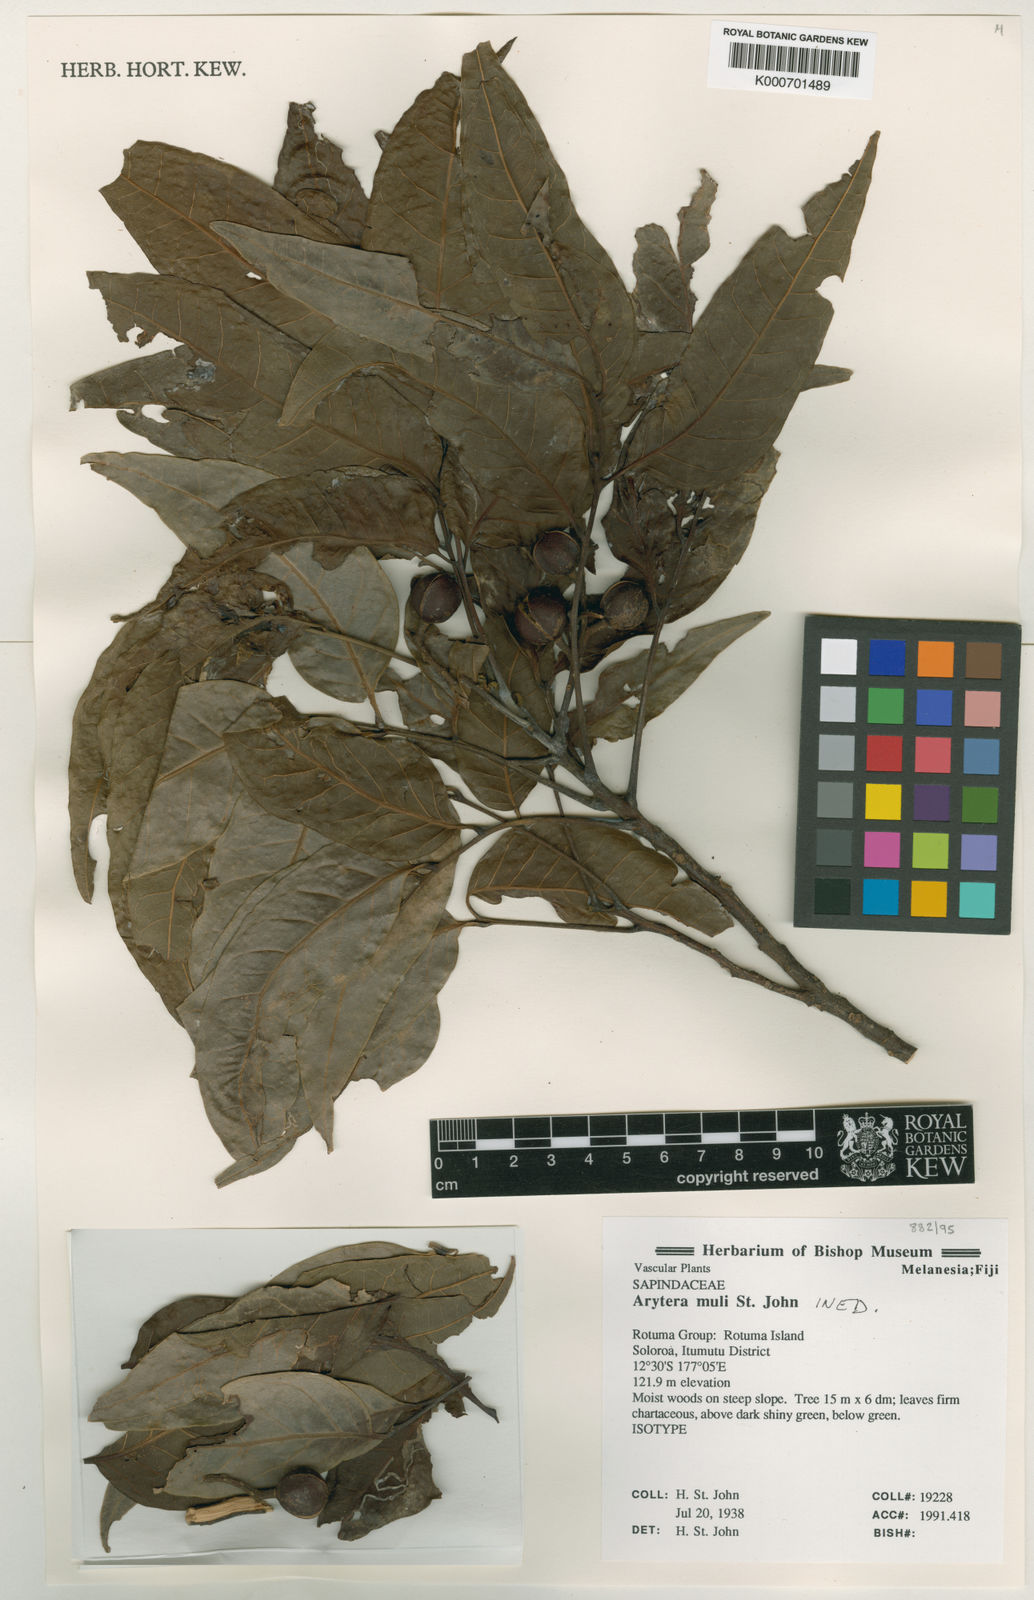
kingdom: Plantae
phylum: Tracheophyta
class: Magnoliopsida
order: Sapindales
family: Sapindaceae
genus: Arytera
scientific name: Arytera
